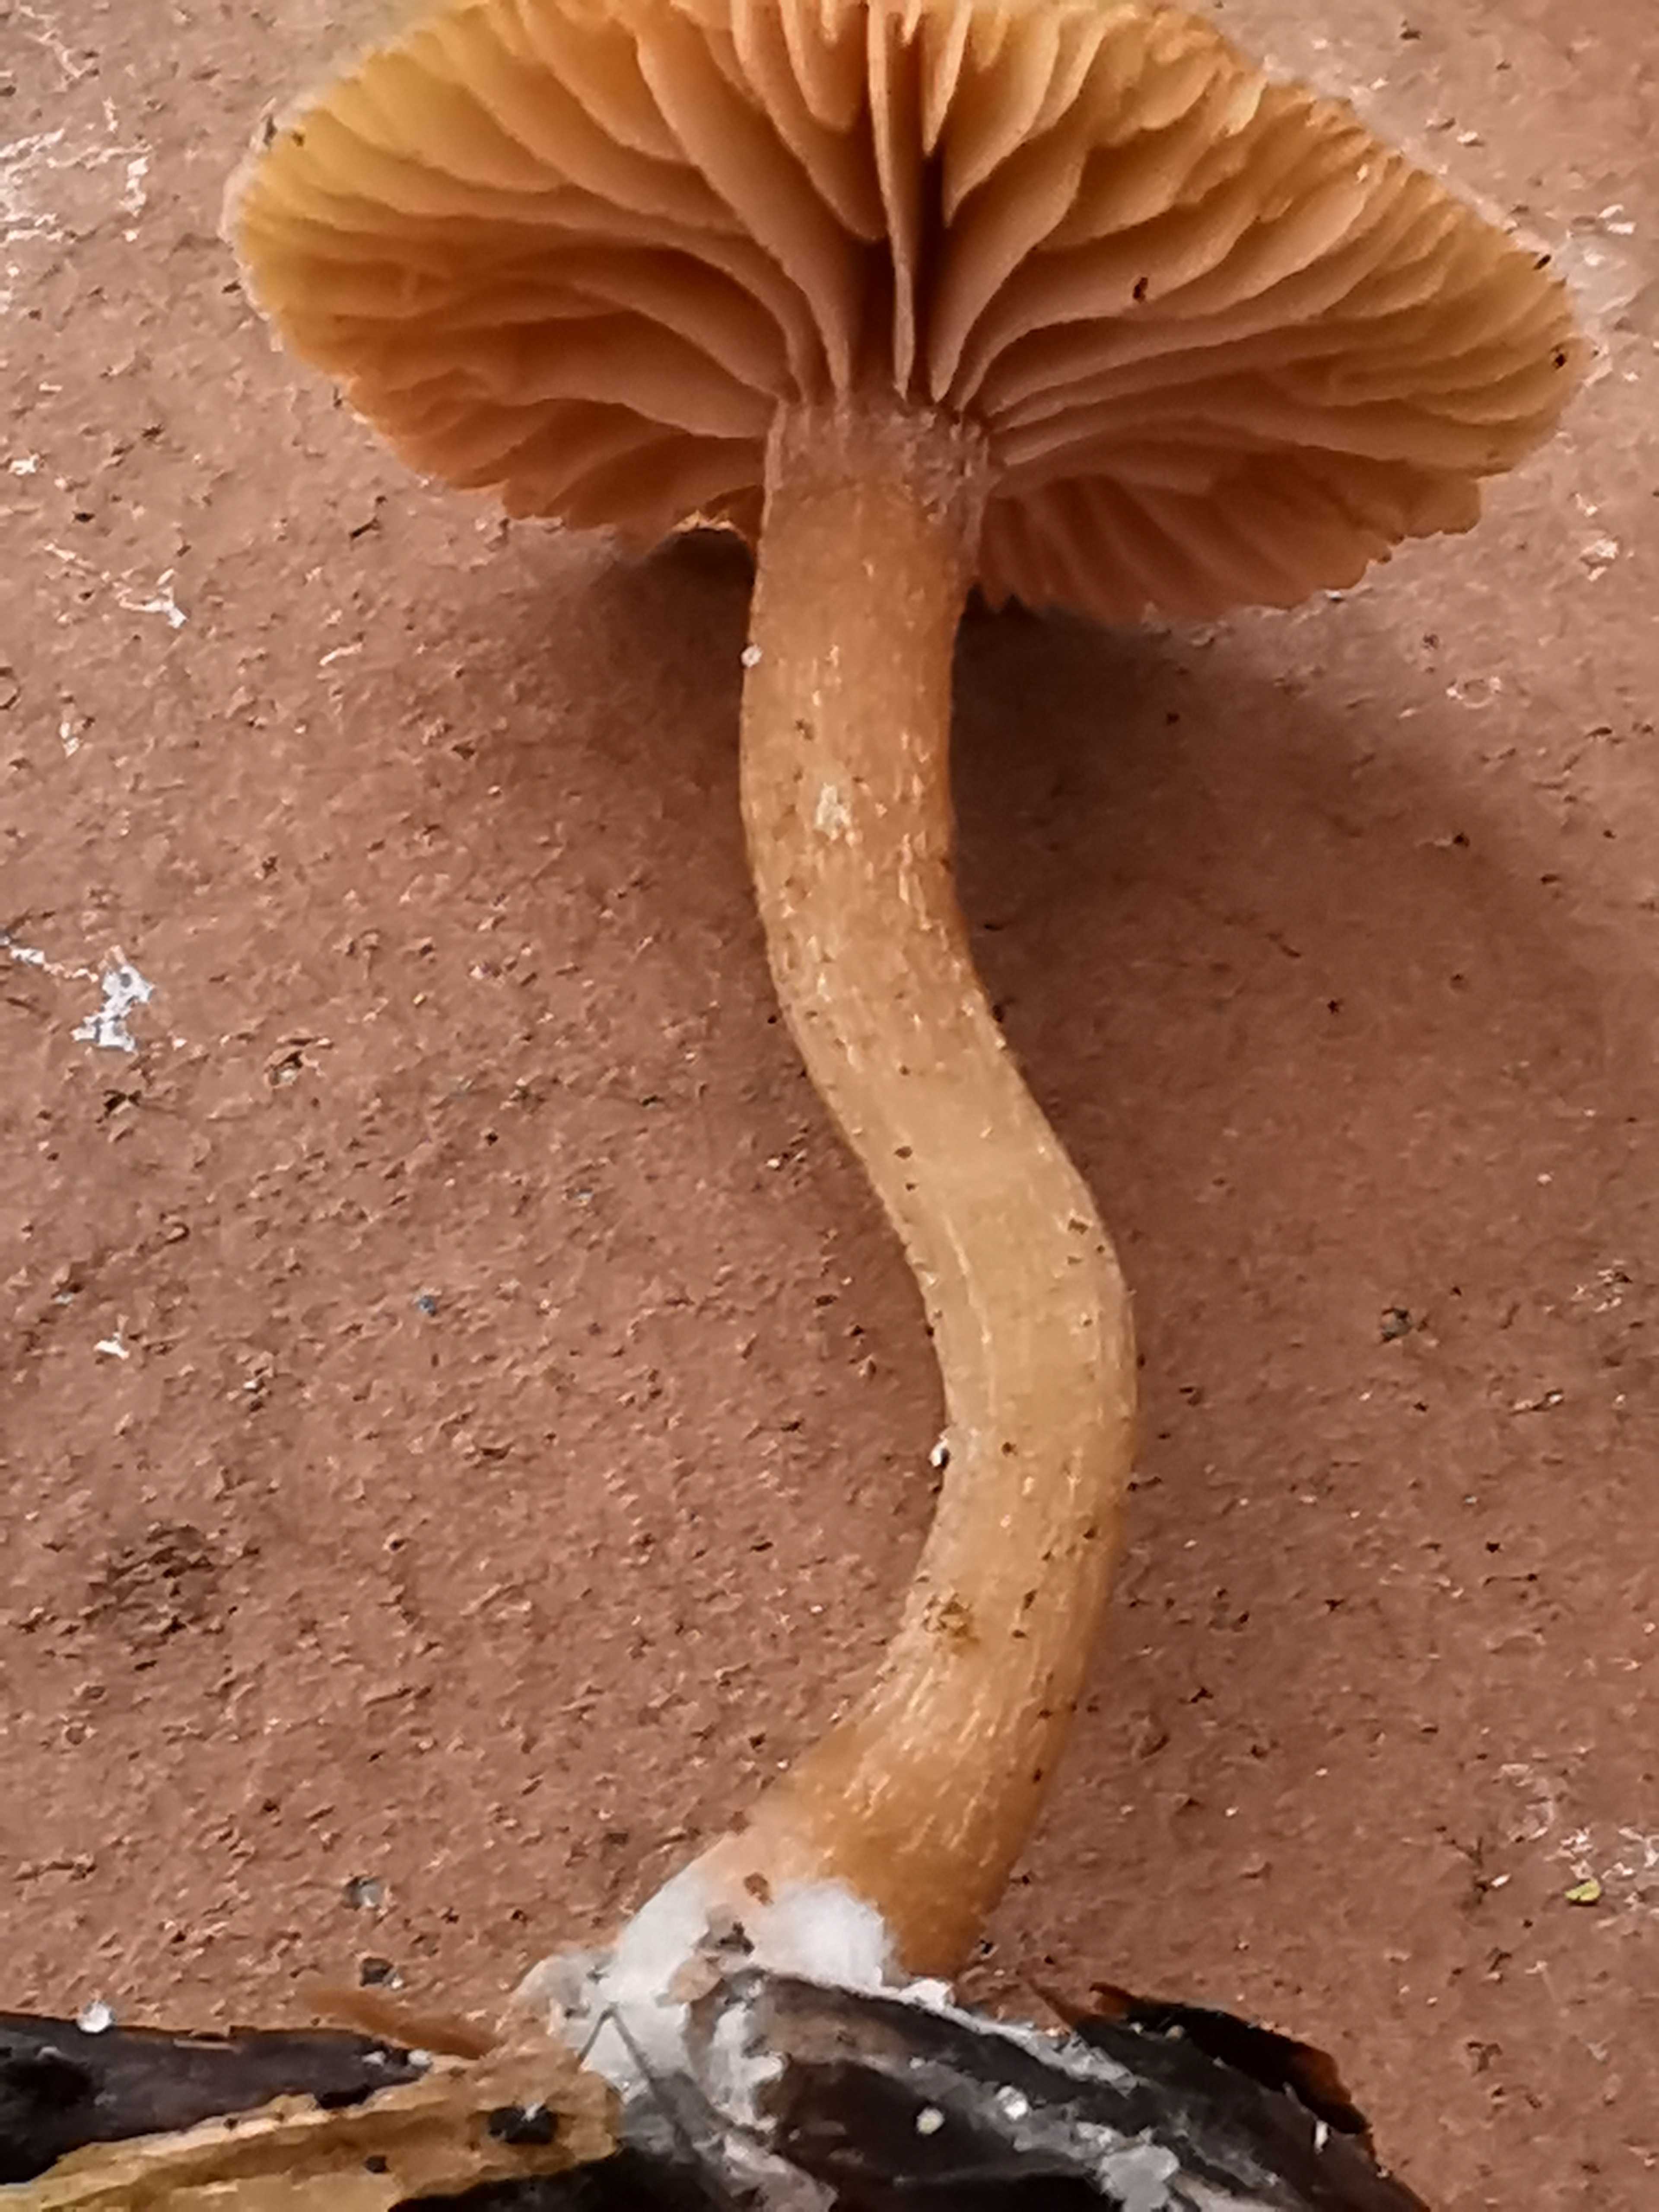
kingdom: Fungi
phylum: Basidiomycota
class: Agaricomycetes
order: Agaricales
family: Tubariaceae
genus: Tubaria
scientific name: Tubaria furfuracea
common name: kliddet fnughat
